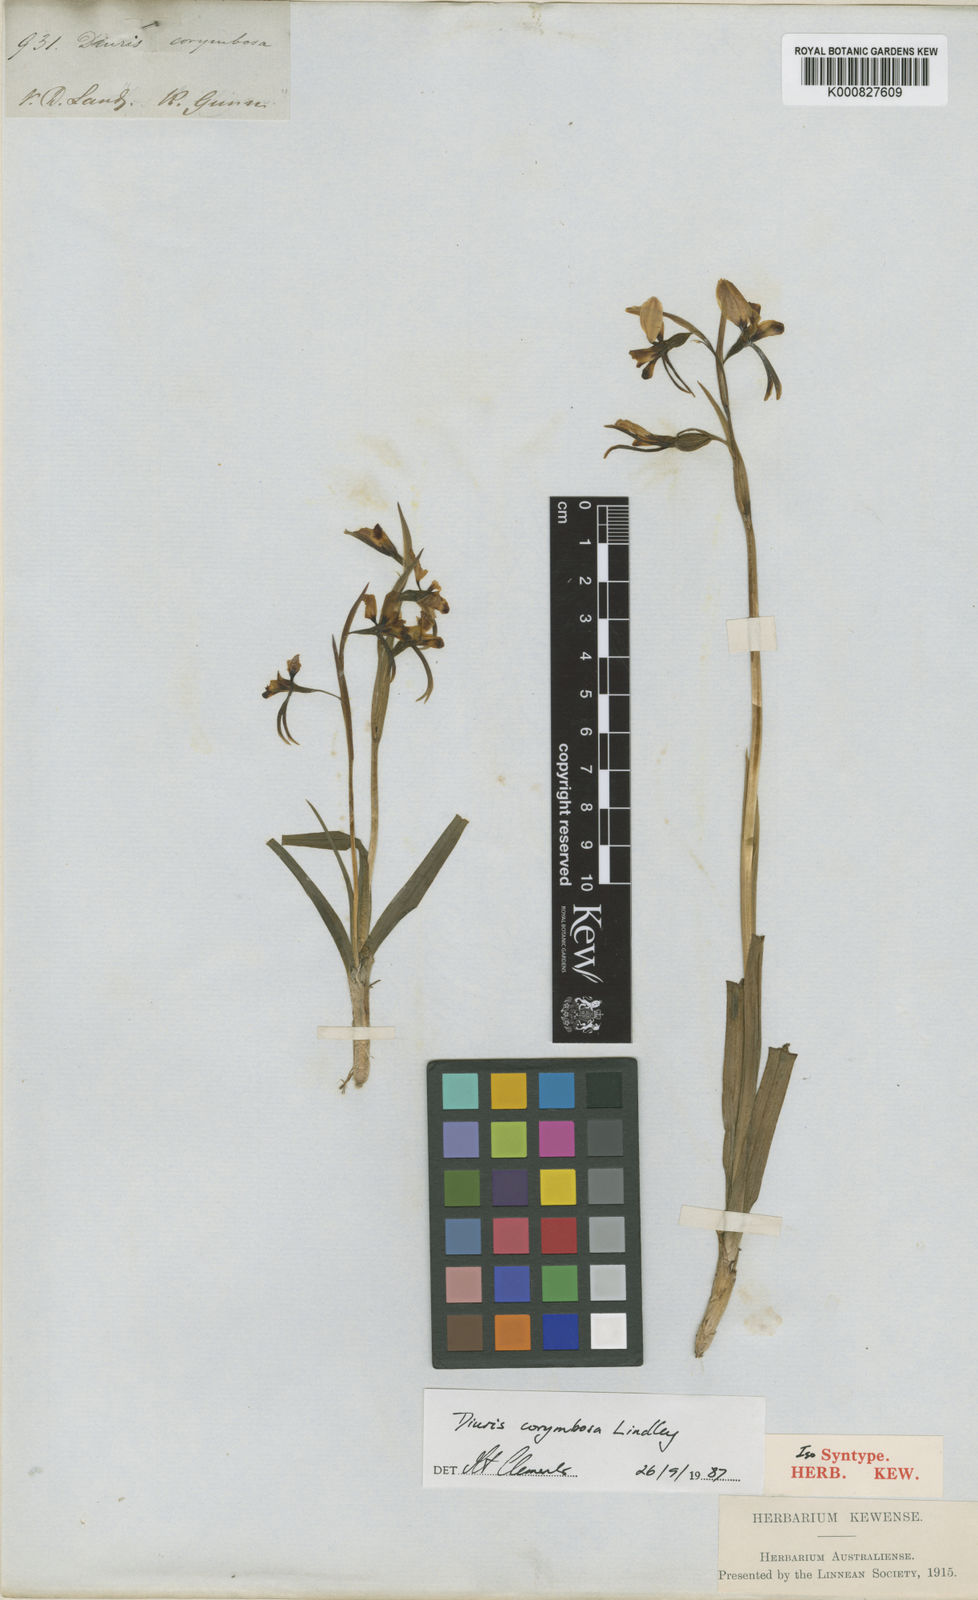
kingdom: Plantae
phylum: Tracheophyta
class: Liliopsida
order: Asparagales
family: Orchidaceae
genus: Diuris
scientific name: Diuris longifolia
